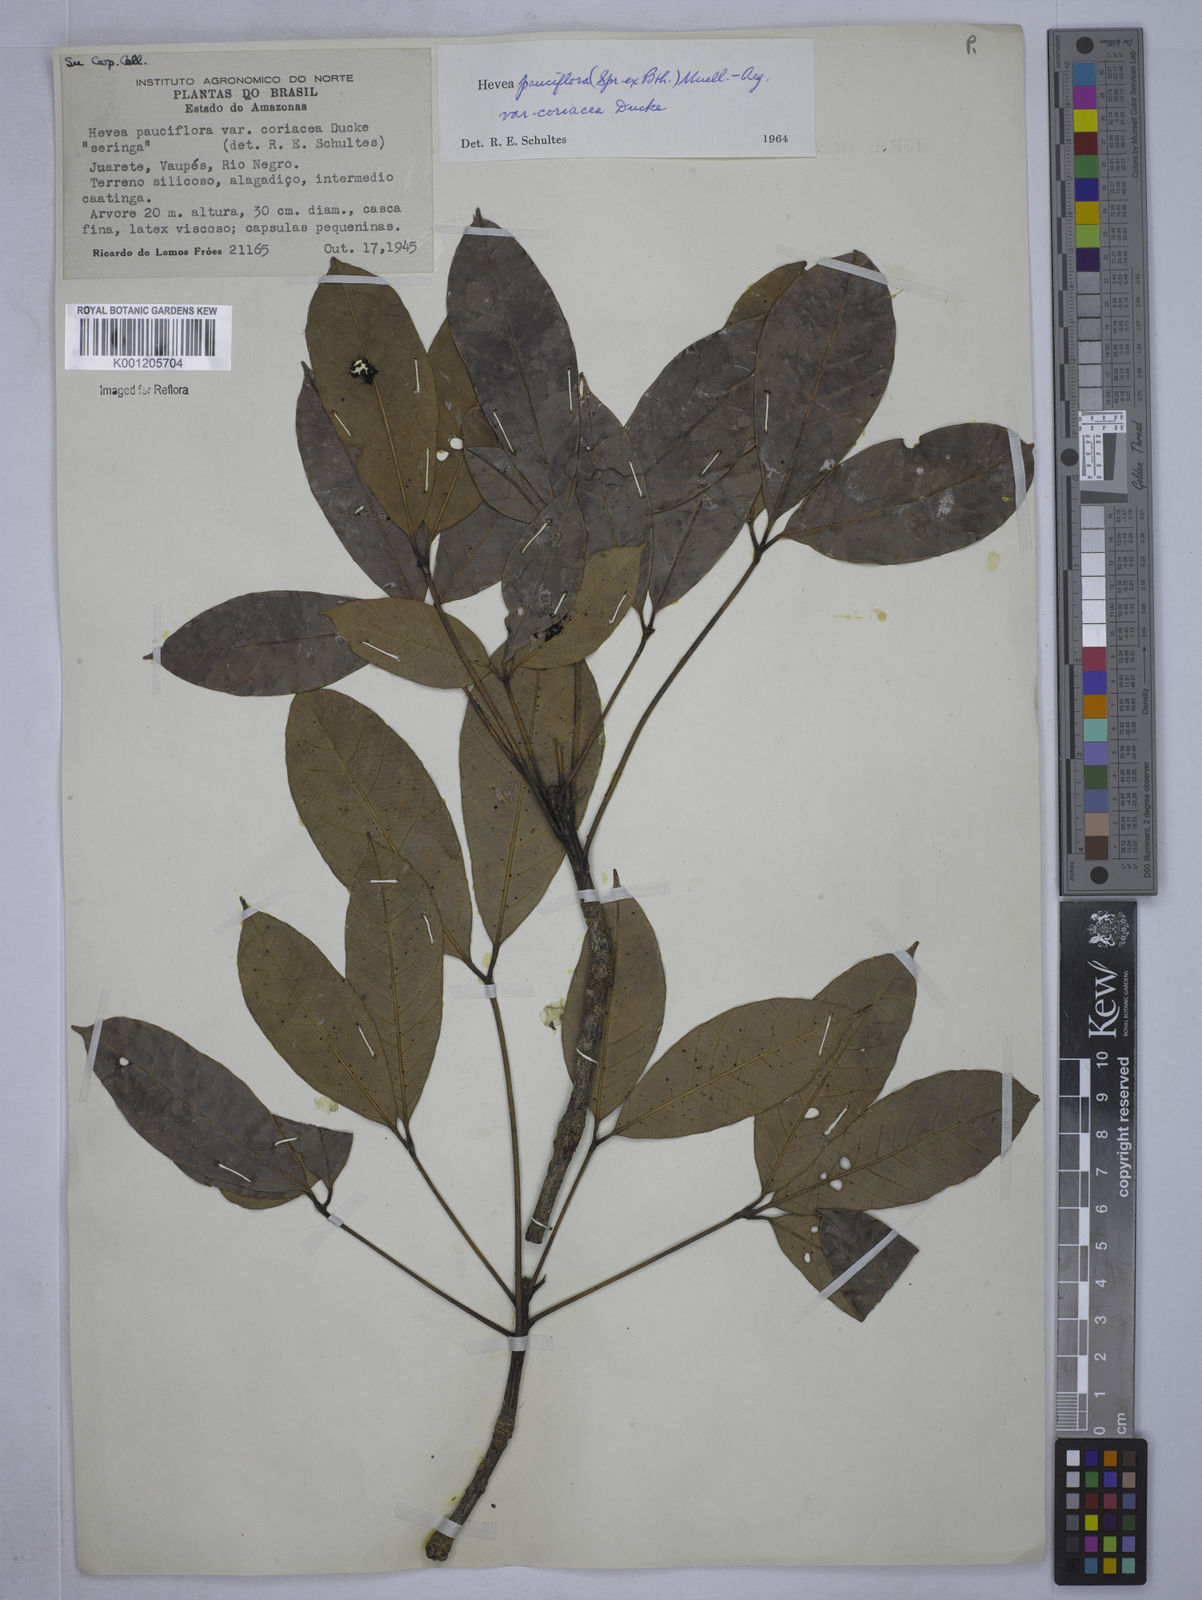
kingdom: Plantae
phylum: Tracheophyta
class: Magnoliopsida
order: Malpighiales
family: Euphorbiaceae
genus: Hevea
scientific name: Hevea pauciflora
